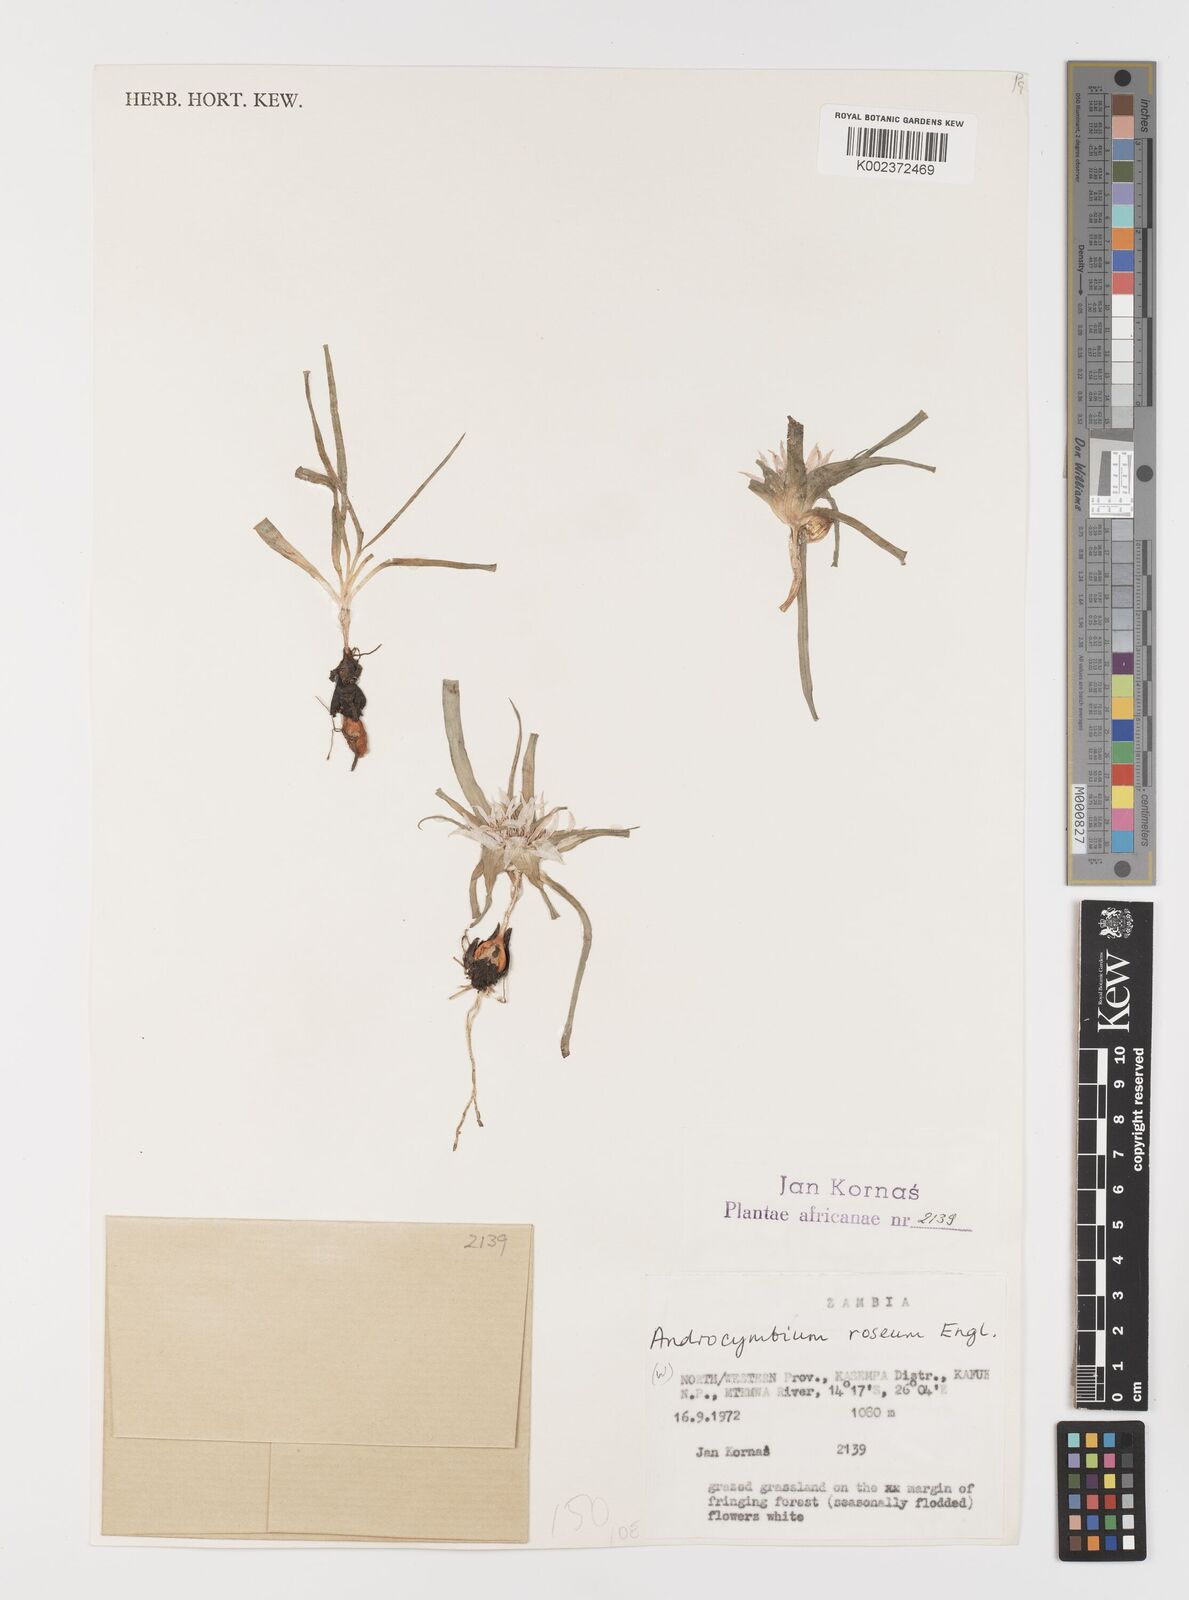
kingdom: Plantae
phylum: Tracheophyta
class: Liliopsida
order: Liliales
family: Colchicaceae
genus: Colchicum
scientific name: Colchicum roseum
